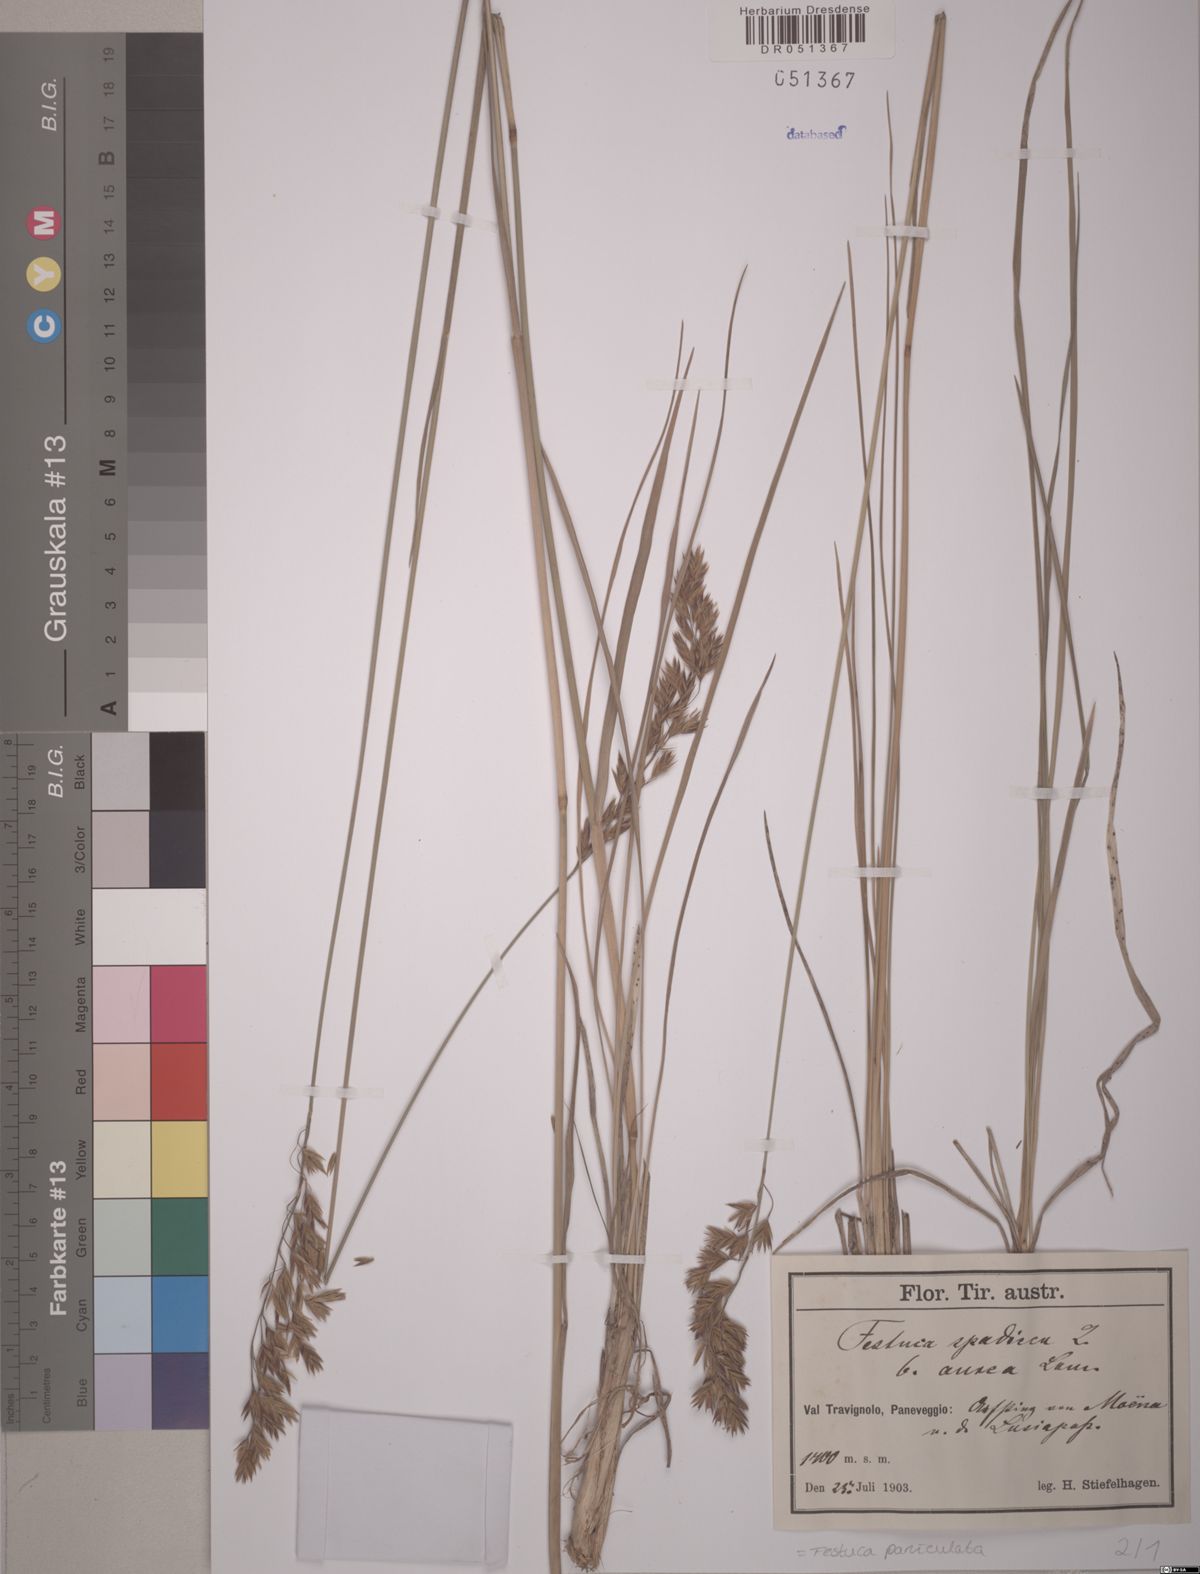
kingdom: Plantae
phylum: Tracheophyta
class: Liliopsida
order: Poales
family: Poaceae
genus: Patzkea
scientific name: Patzkea paniculata
